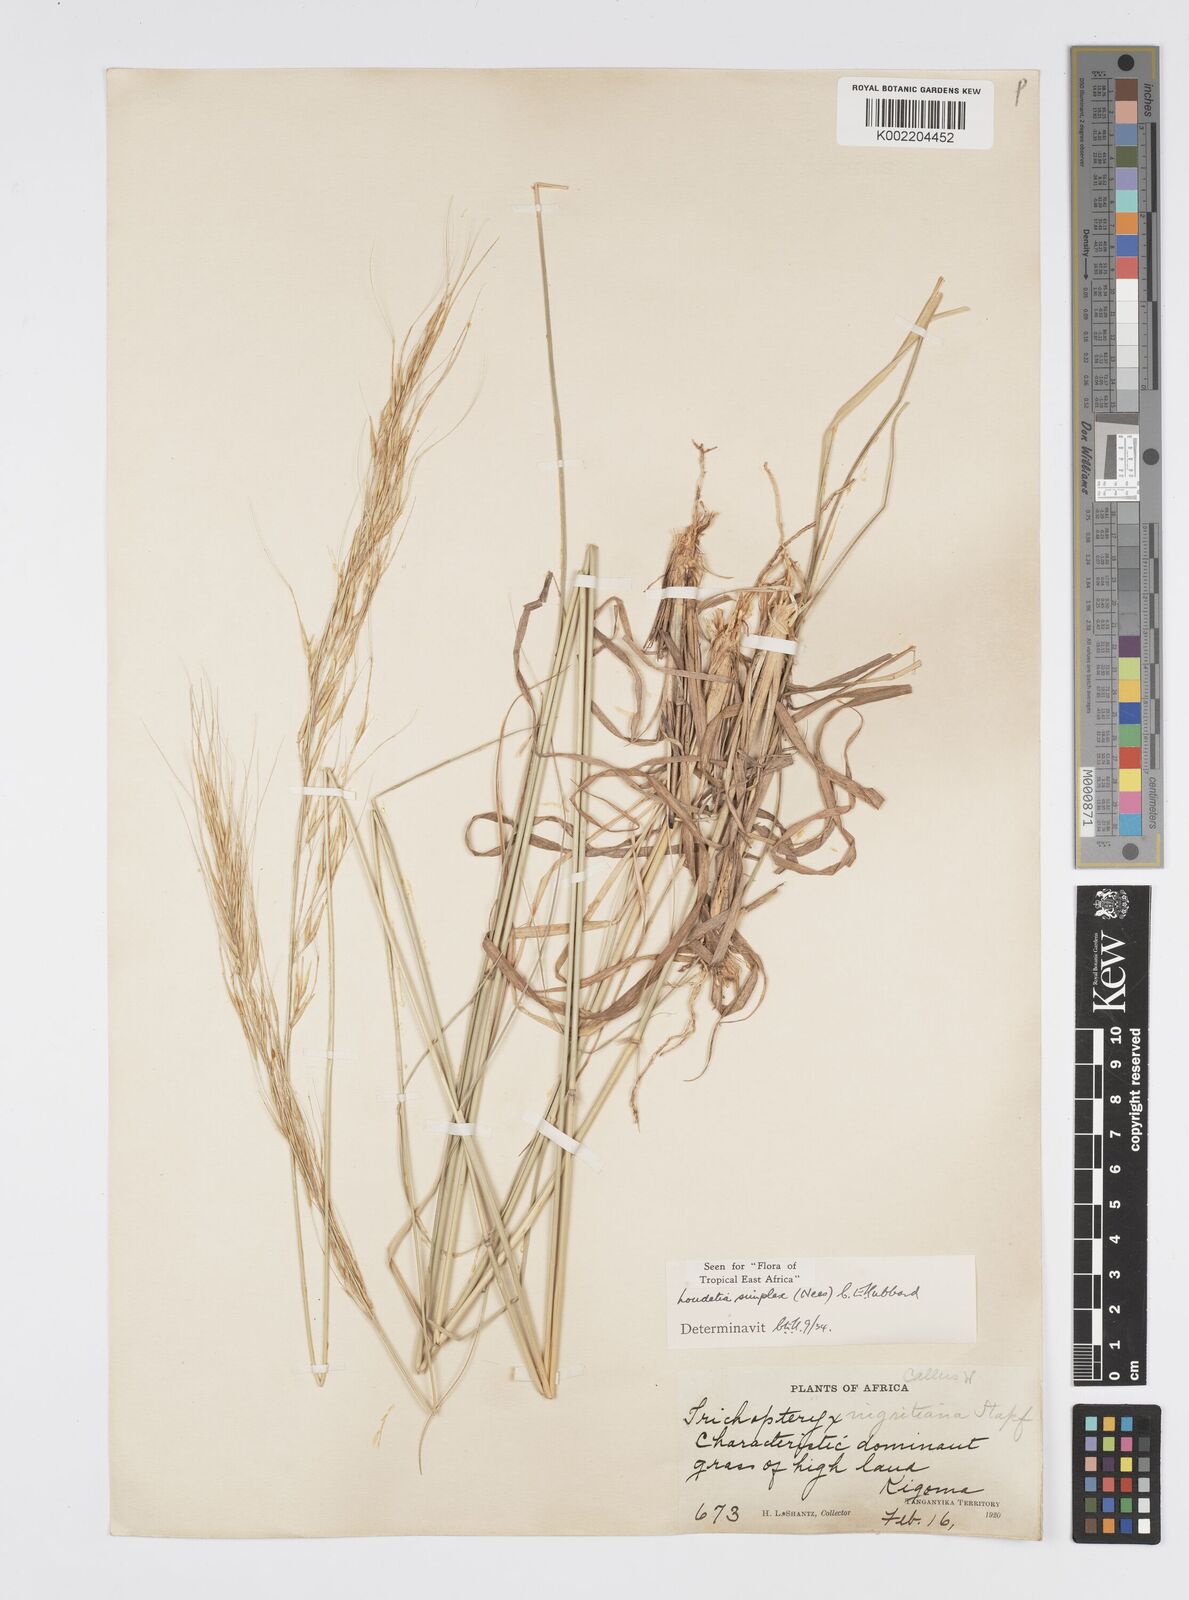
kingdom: Plantae
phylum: Tracheophyta
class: Liliopsida
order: Poales
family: Poaceae
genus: Loudetia
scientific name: Loudetia simplex
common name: Common russet grass
